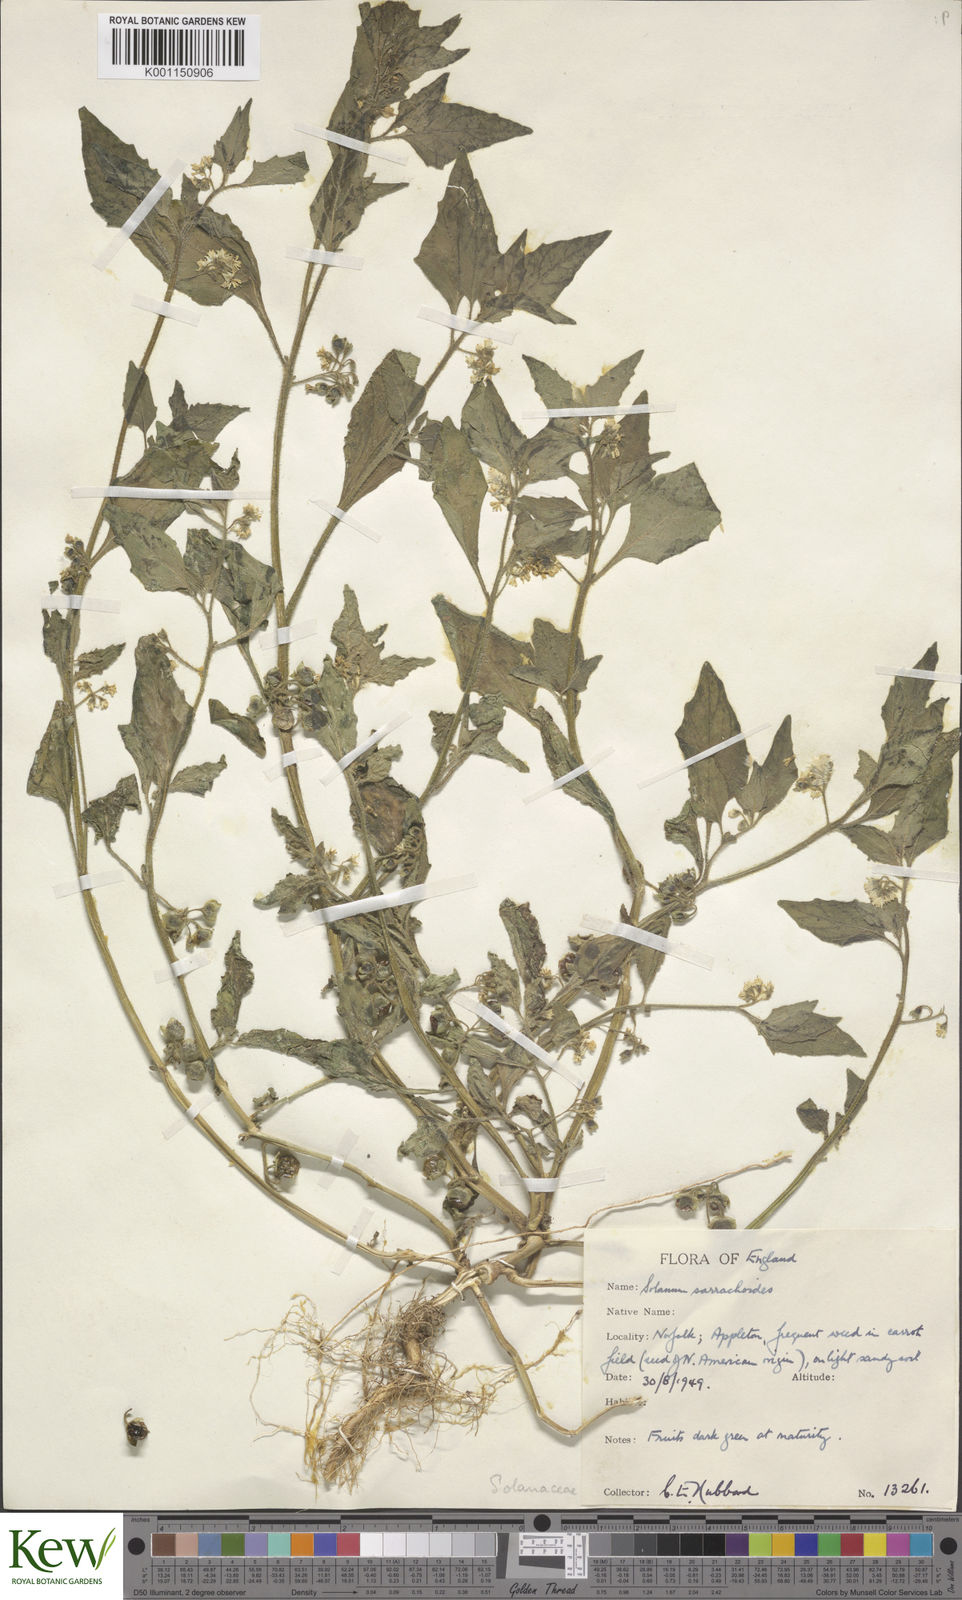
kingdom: Plantae
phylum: Tracheophyta
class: Magnoliopsida
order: Solanales
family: Solanaceae
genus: Solanum
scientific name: Solanum nitidibaccatum
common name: Hairy nightshade
